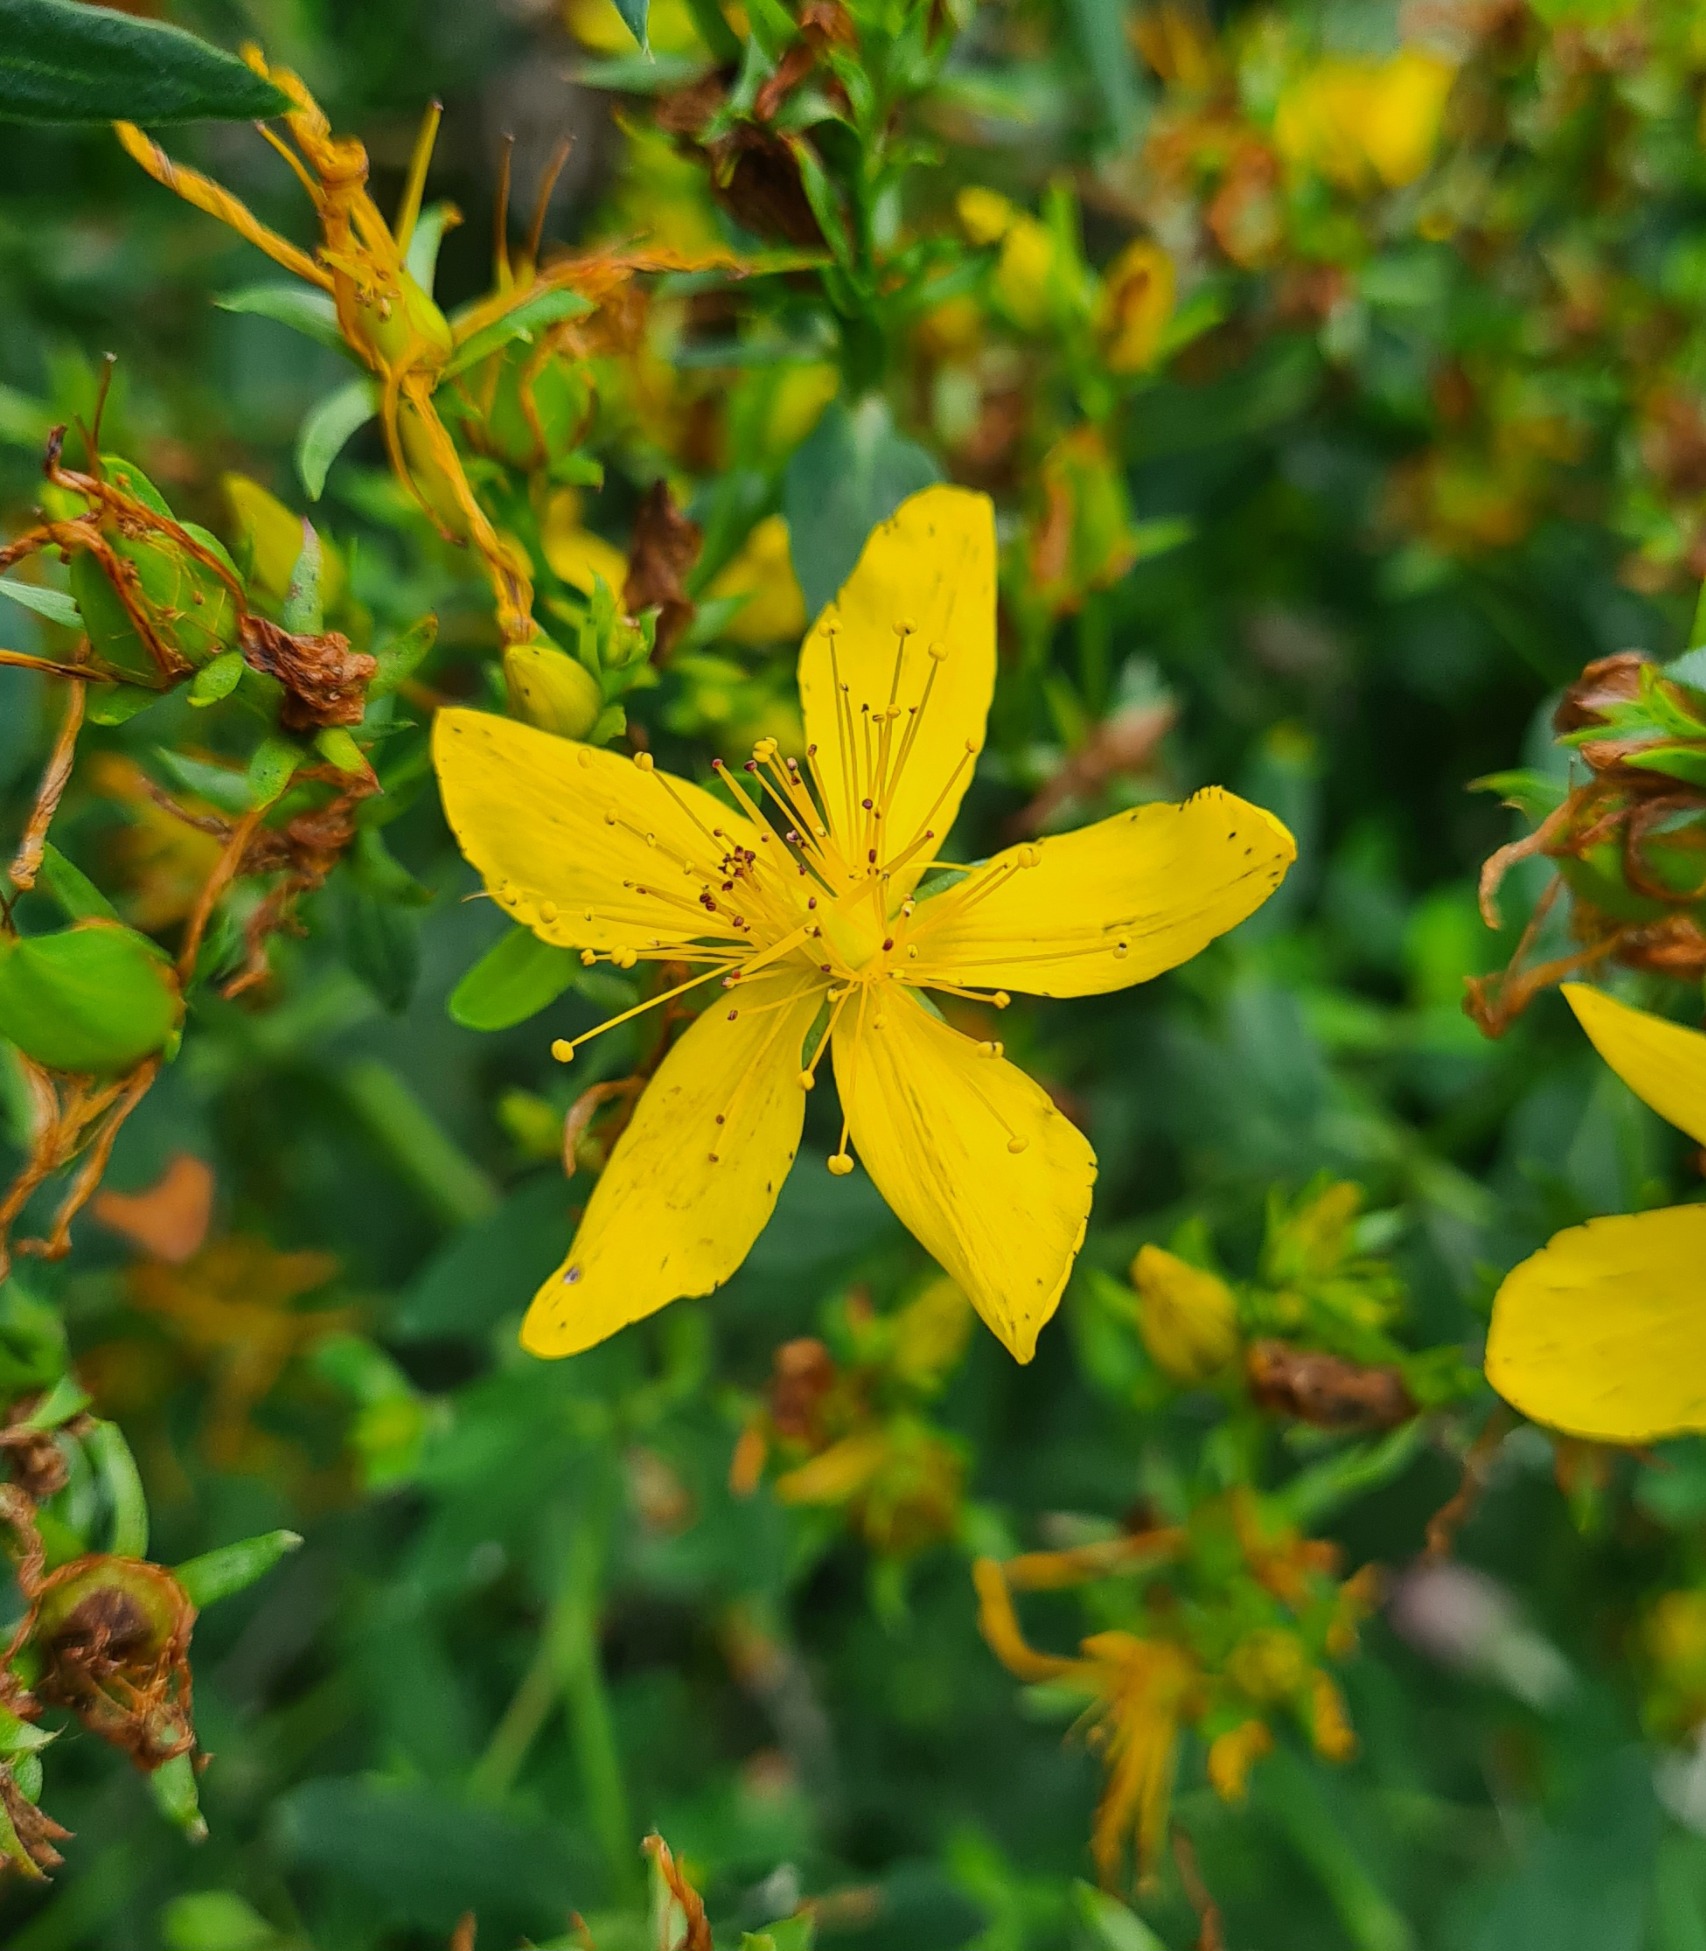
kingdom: Plantae
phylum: Tracheophyta
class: Magnoliopsida
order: Malpighiales
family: Hypericaceae
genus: Hypericum
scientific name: Hypericum perforatum
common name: Prikbladet perikon
